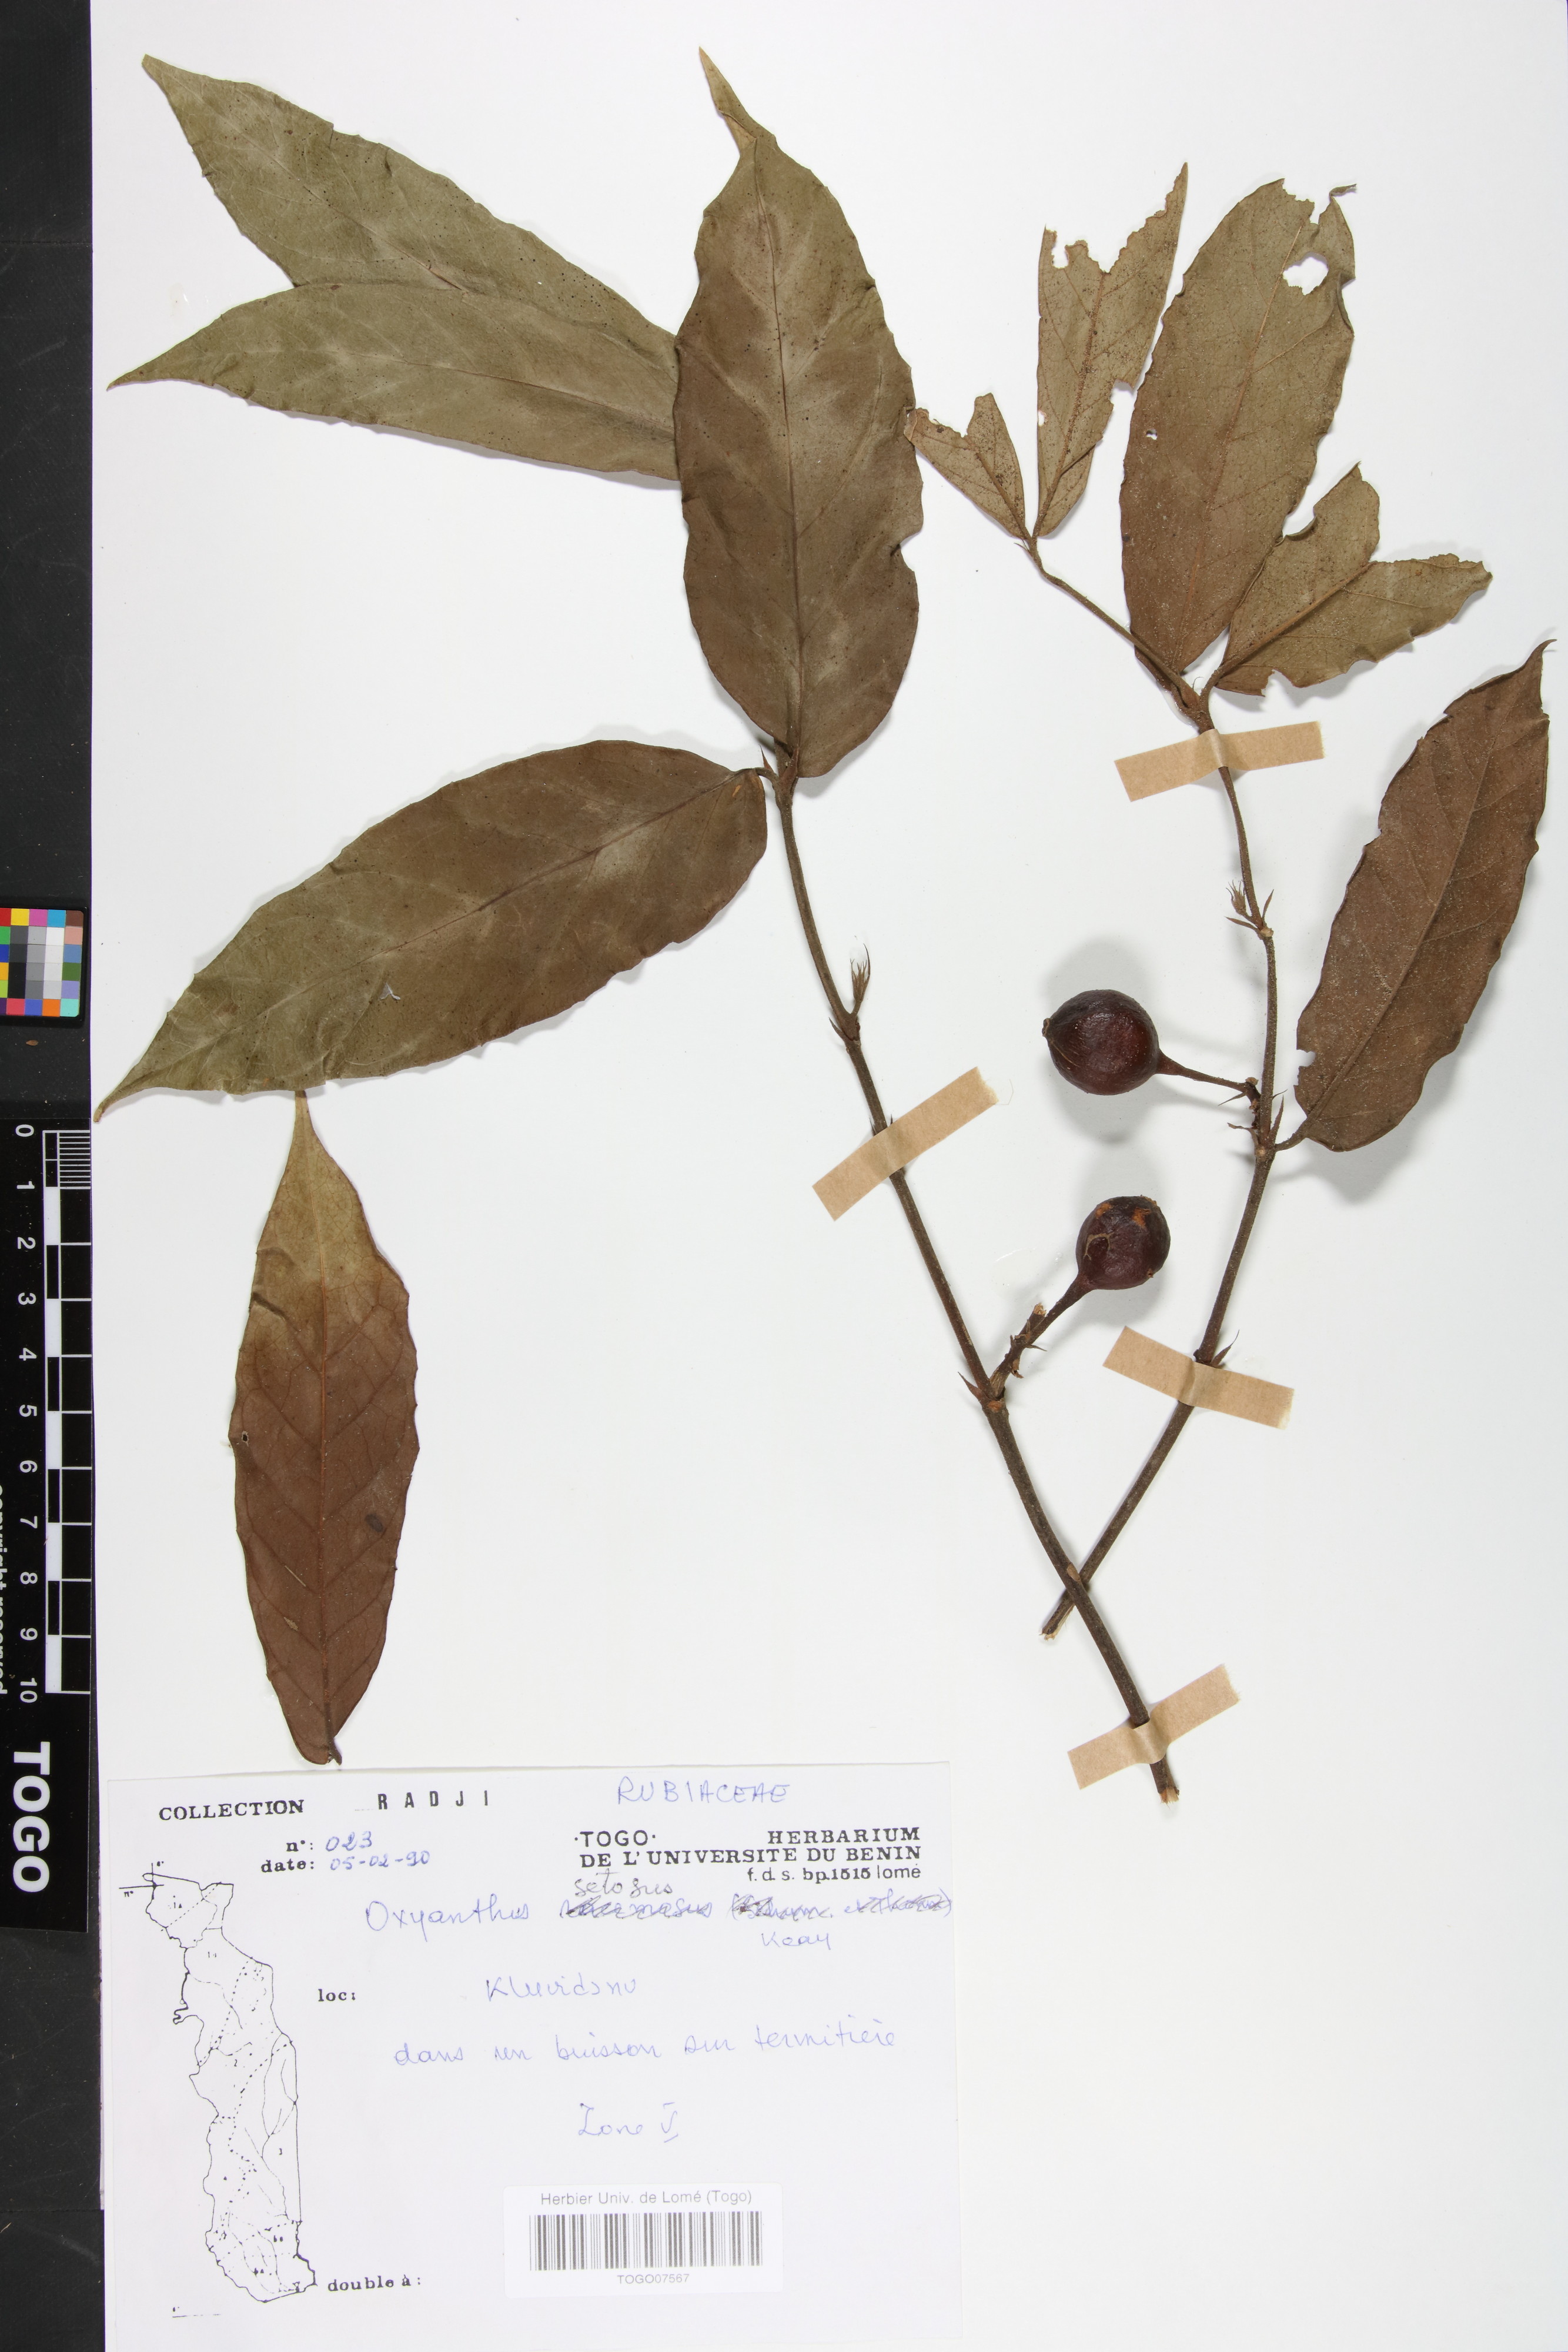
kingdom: Plantae
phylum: Tracheophyta
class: Magnoliopsida
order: Gentianales
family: Rubiaceae
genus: Oxyanthus
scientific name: Oxyanthus setosus
